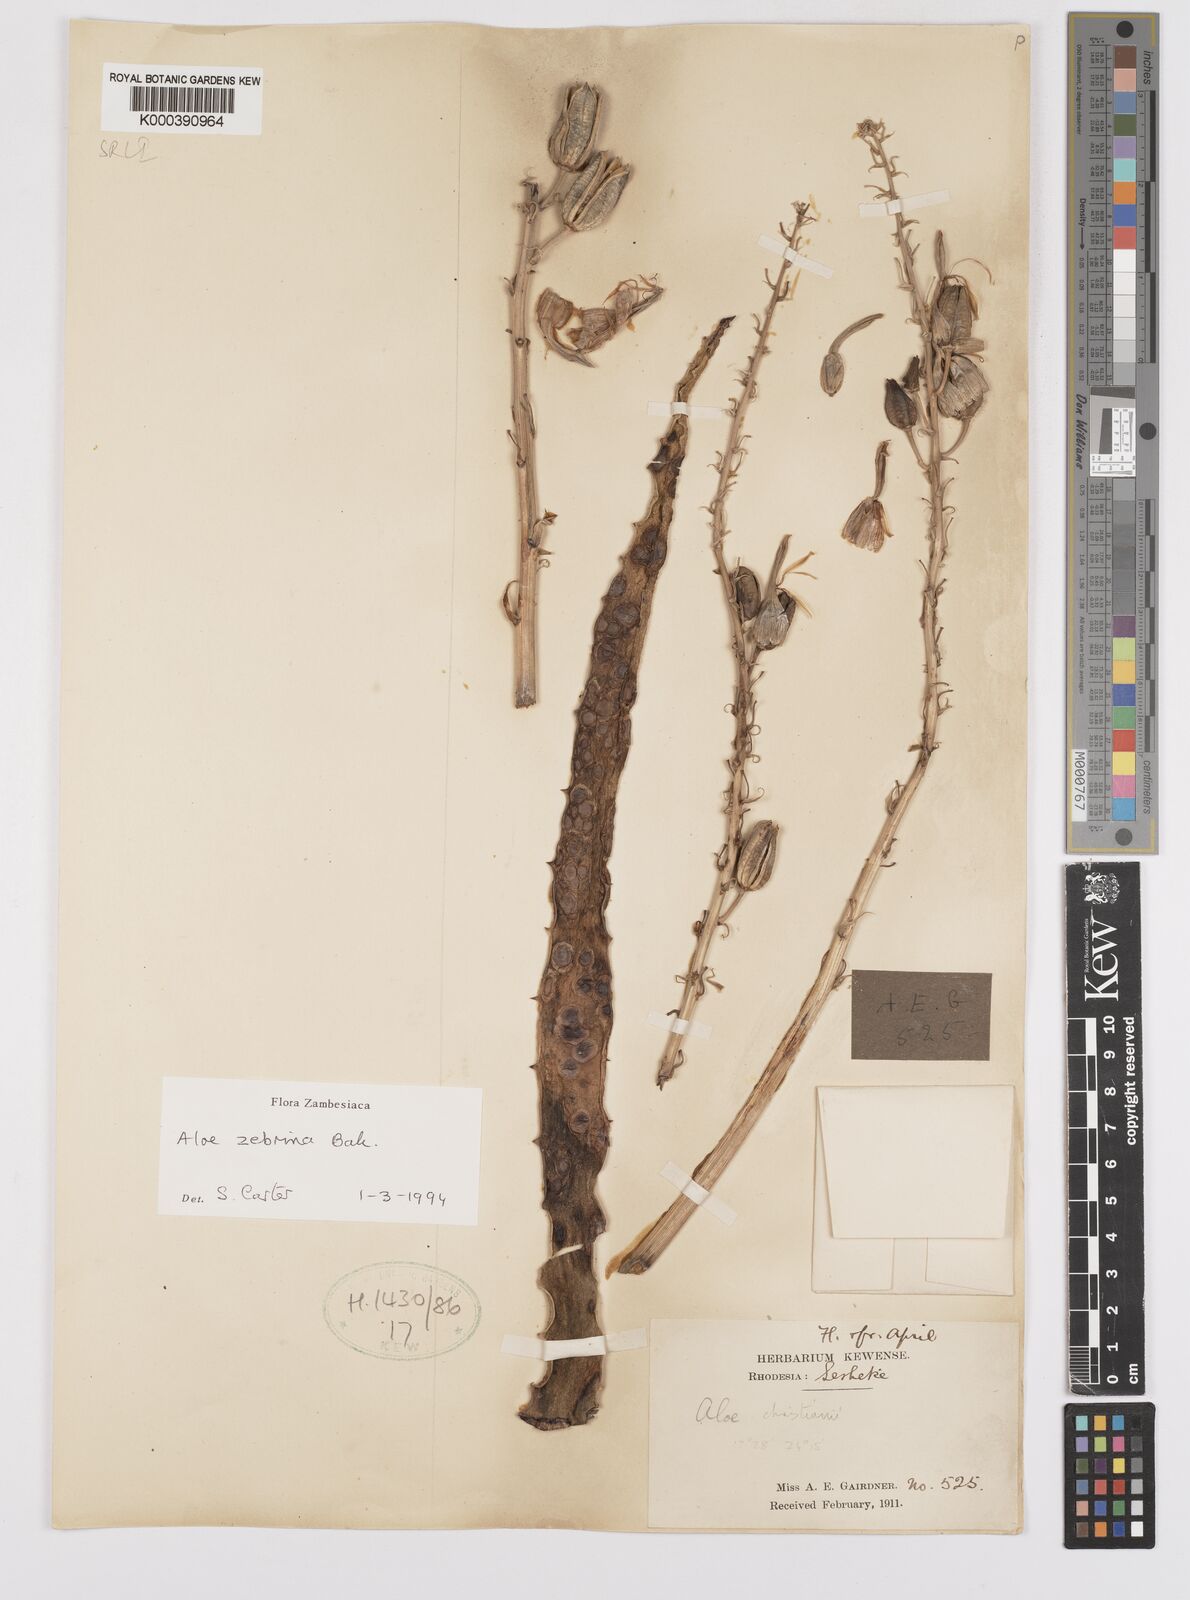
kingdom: Plantae
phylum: Tracheophyta
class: Liliopsida
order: Asparagales
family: Asphodelaceae
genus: Aloe
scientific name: Aloe zebrina
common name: Zebra-leaf aloe
